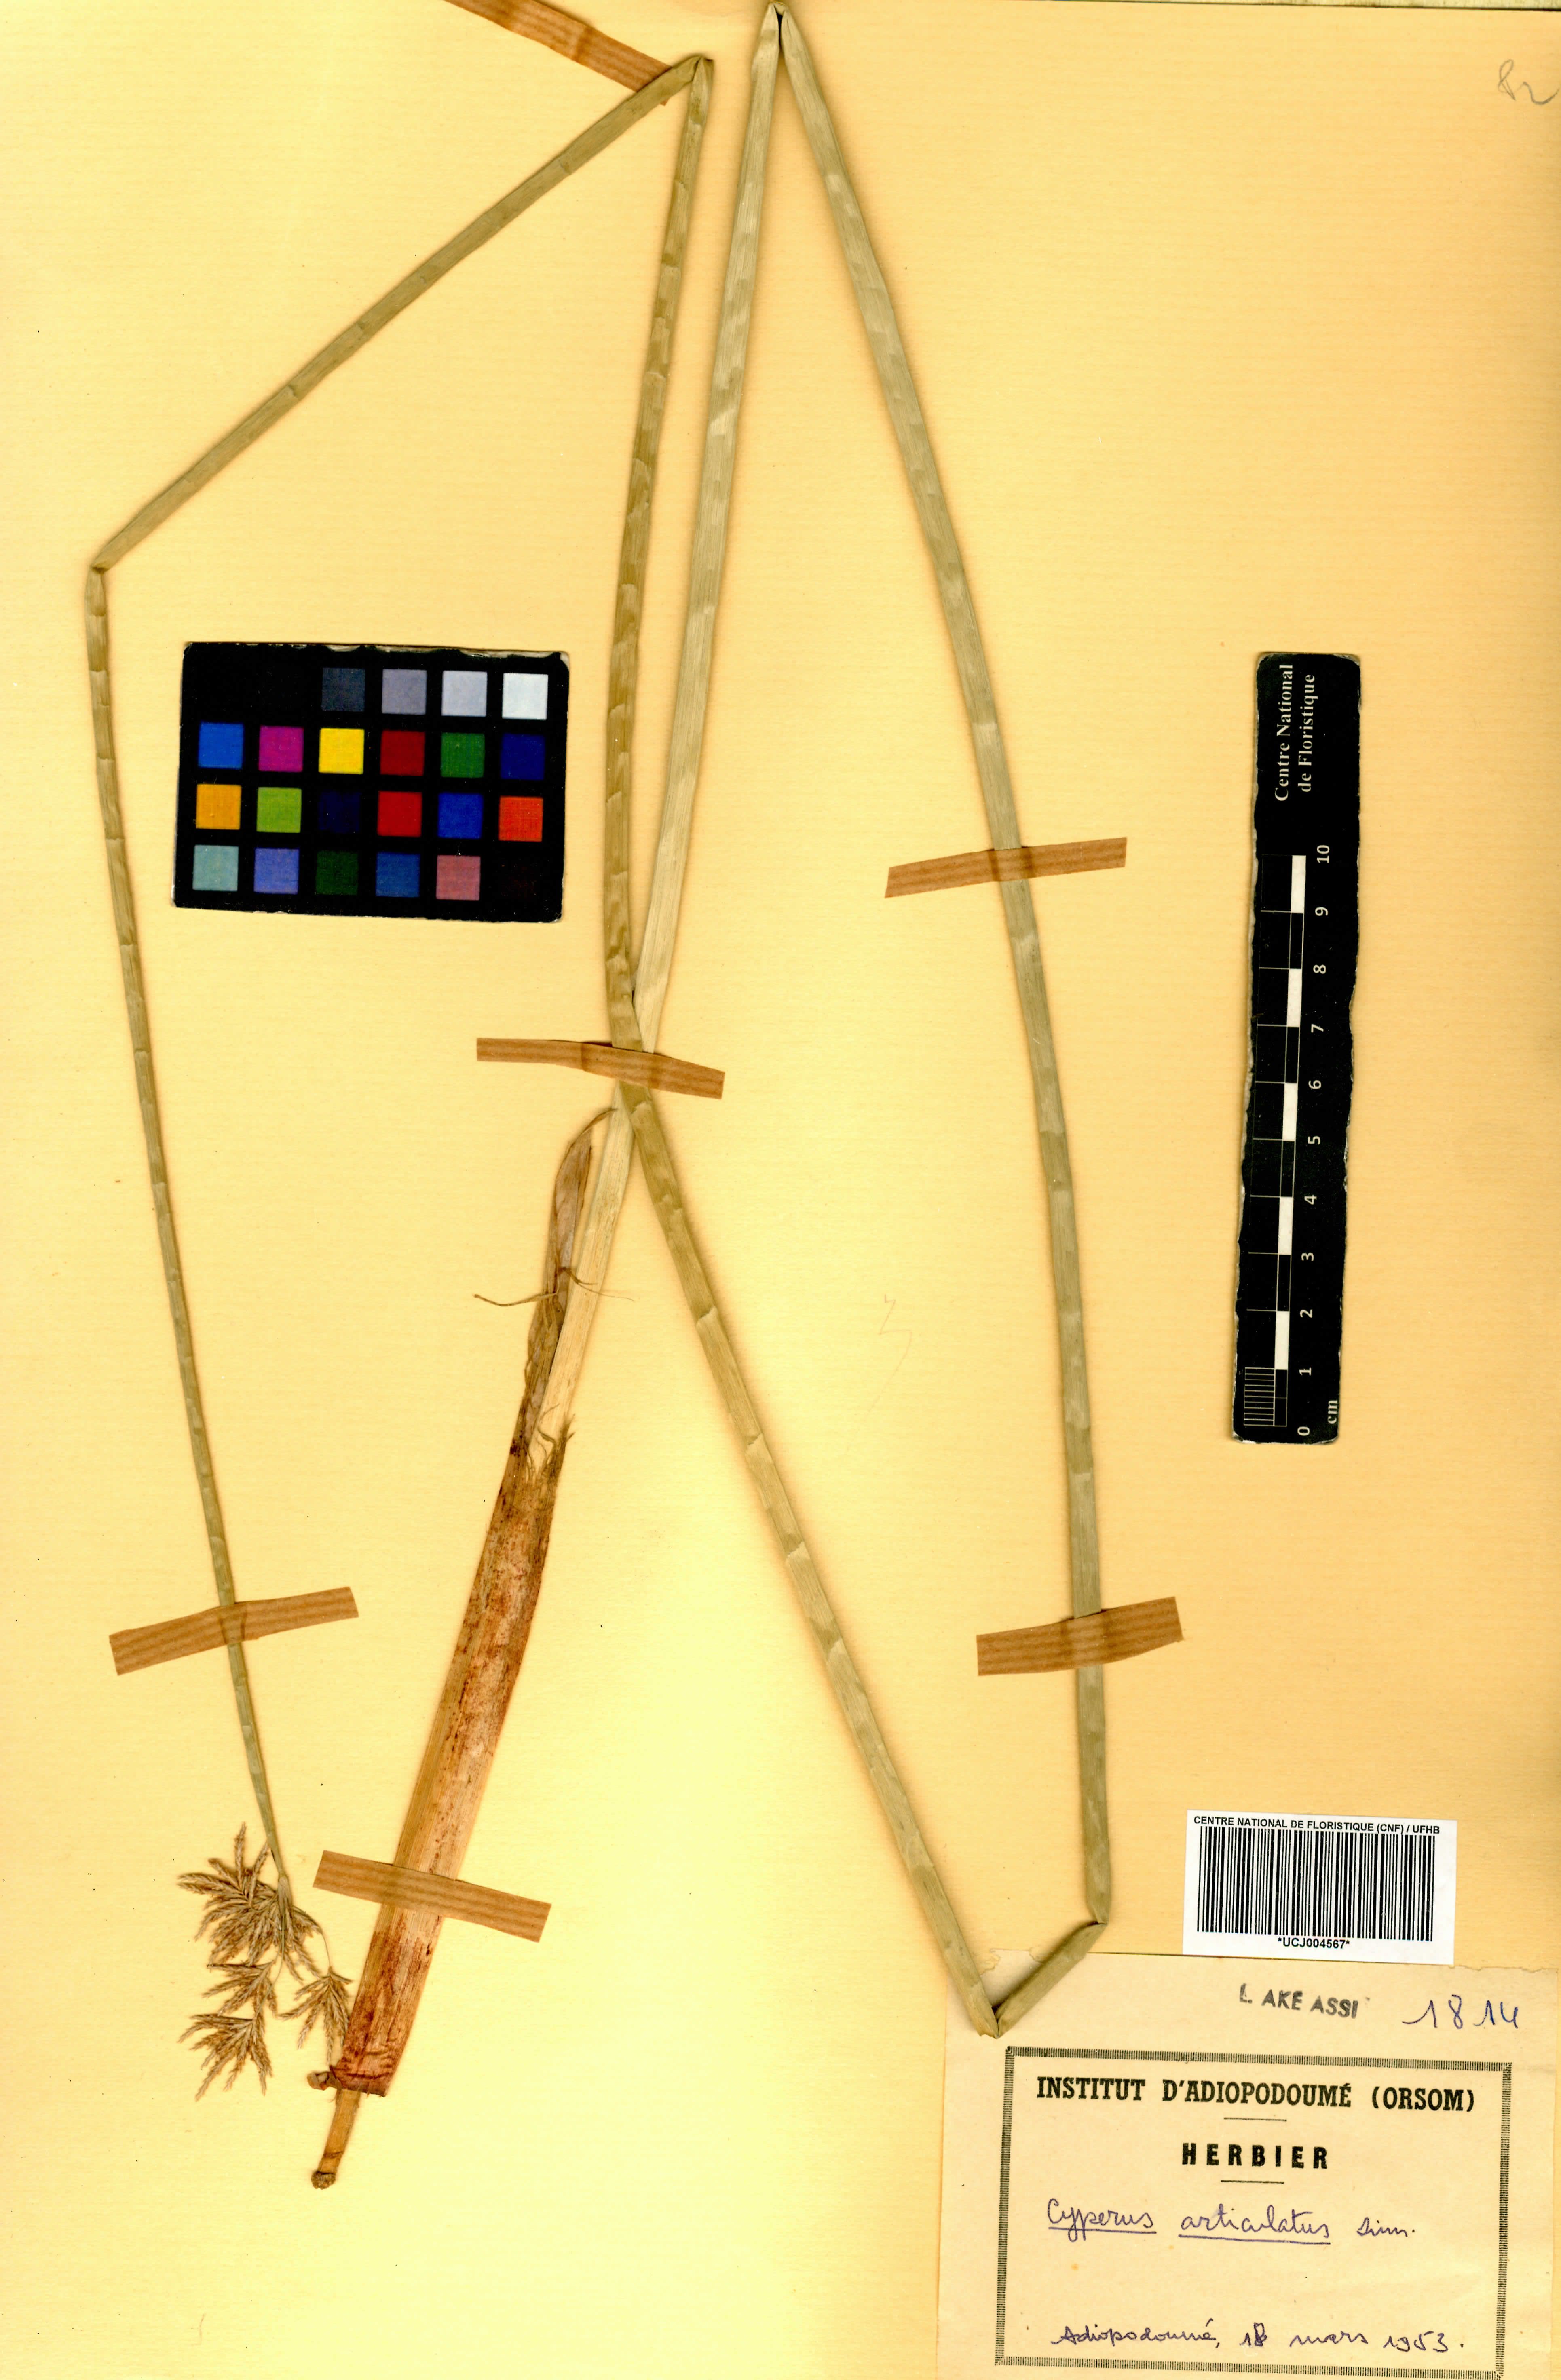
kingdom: Plantae
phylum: Tracheophyta
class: Liliopsida
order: Poales
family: Cyperaceae
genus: Cyperus
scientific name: Cyperus articulatus
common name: Jointed flatsedge
